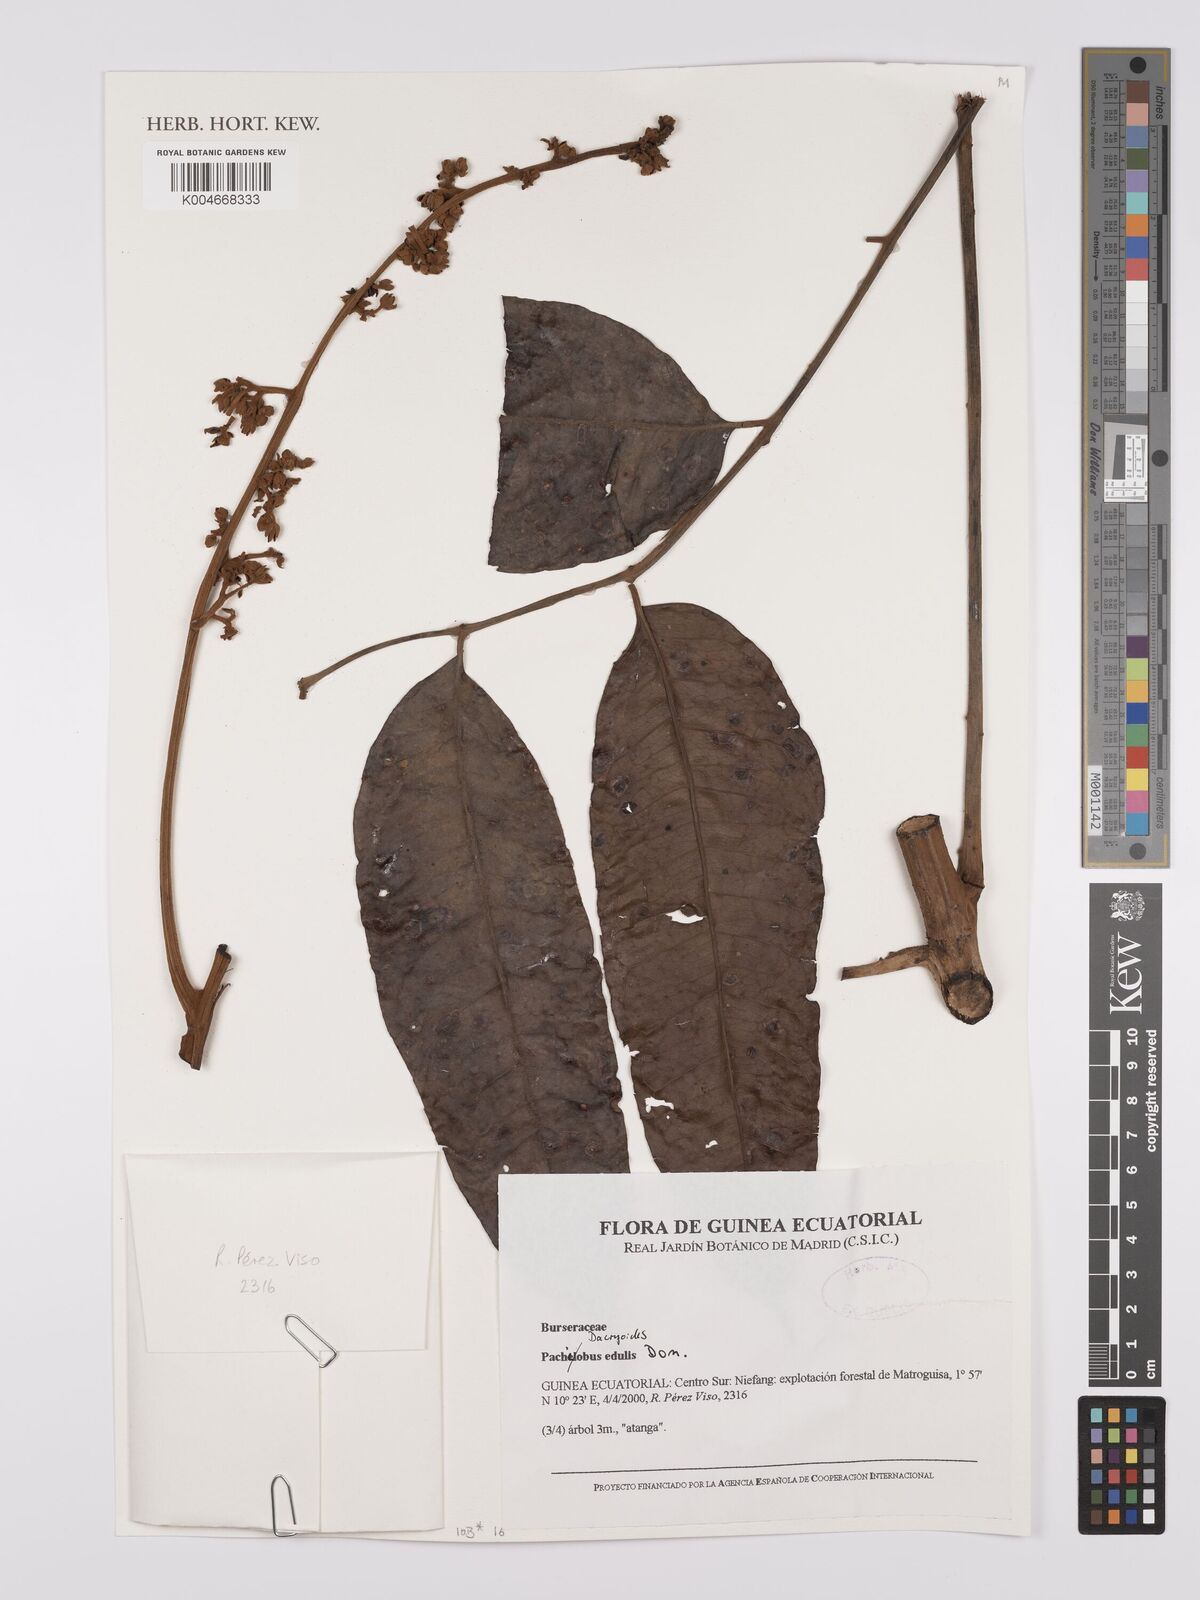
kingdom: Plantae
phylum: Tracheophyta
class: Magnoliopsida
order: Sapindales
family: Burseraceae
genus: Pachylobus
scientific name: Pachylobus edulis
